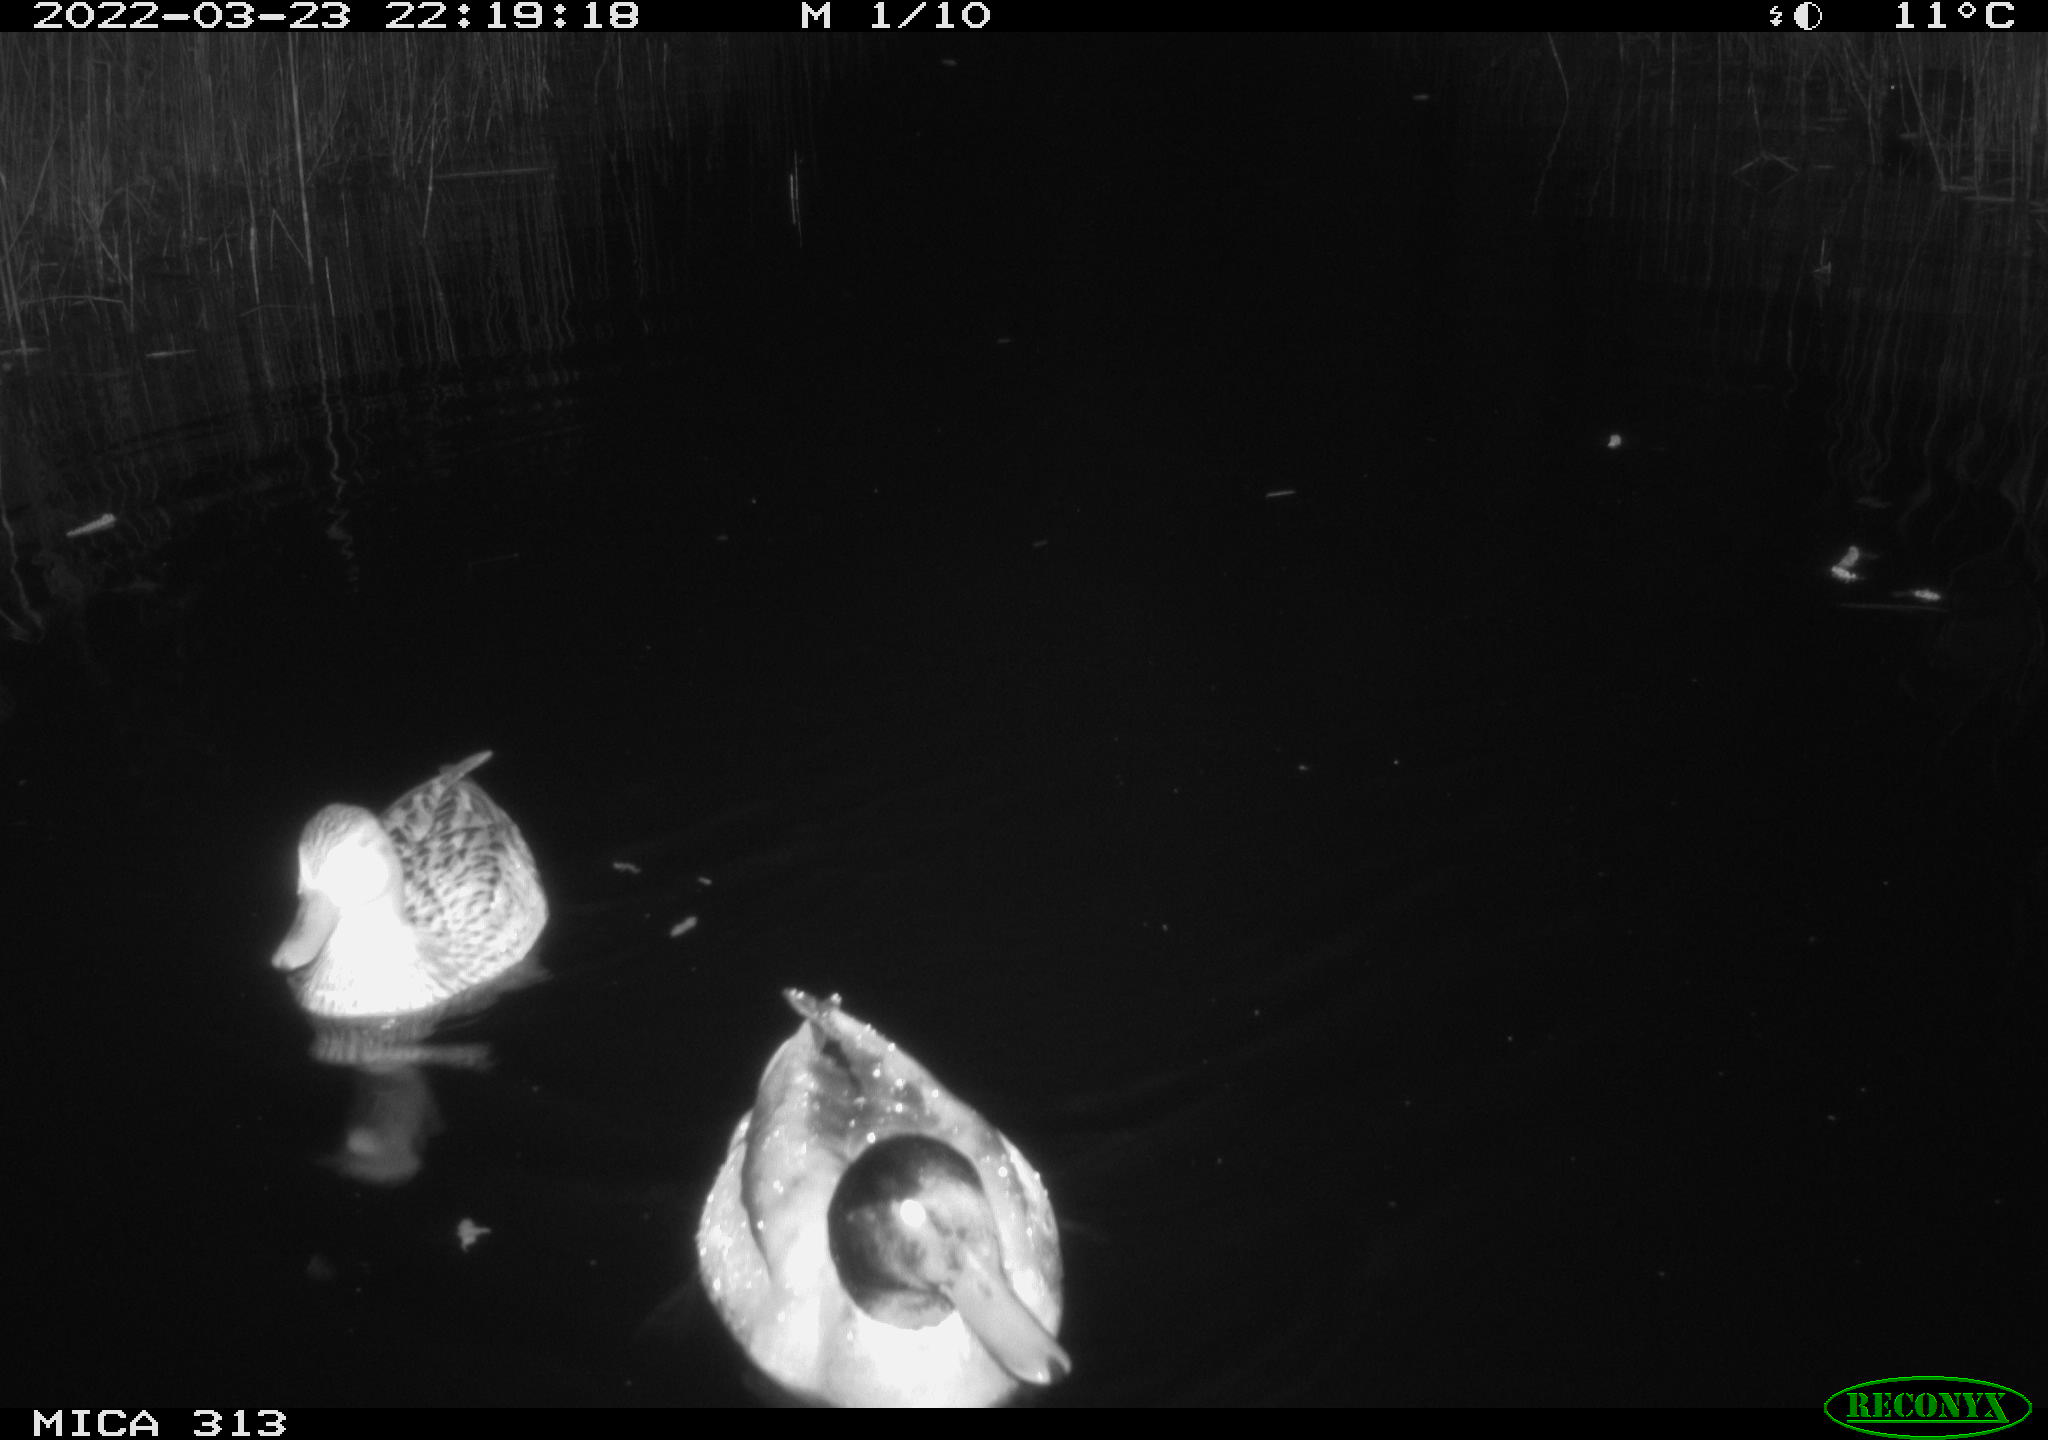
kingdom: Animalia
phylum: Chordata
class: Aves
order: Anseriformes
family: Anatidae
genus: Mareca
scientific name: Mareca strepera
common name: Gadwall
